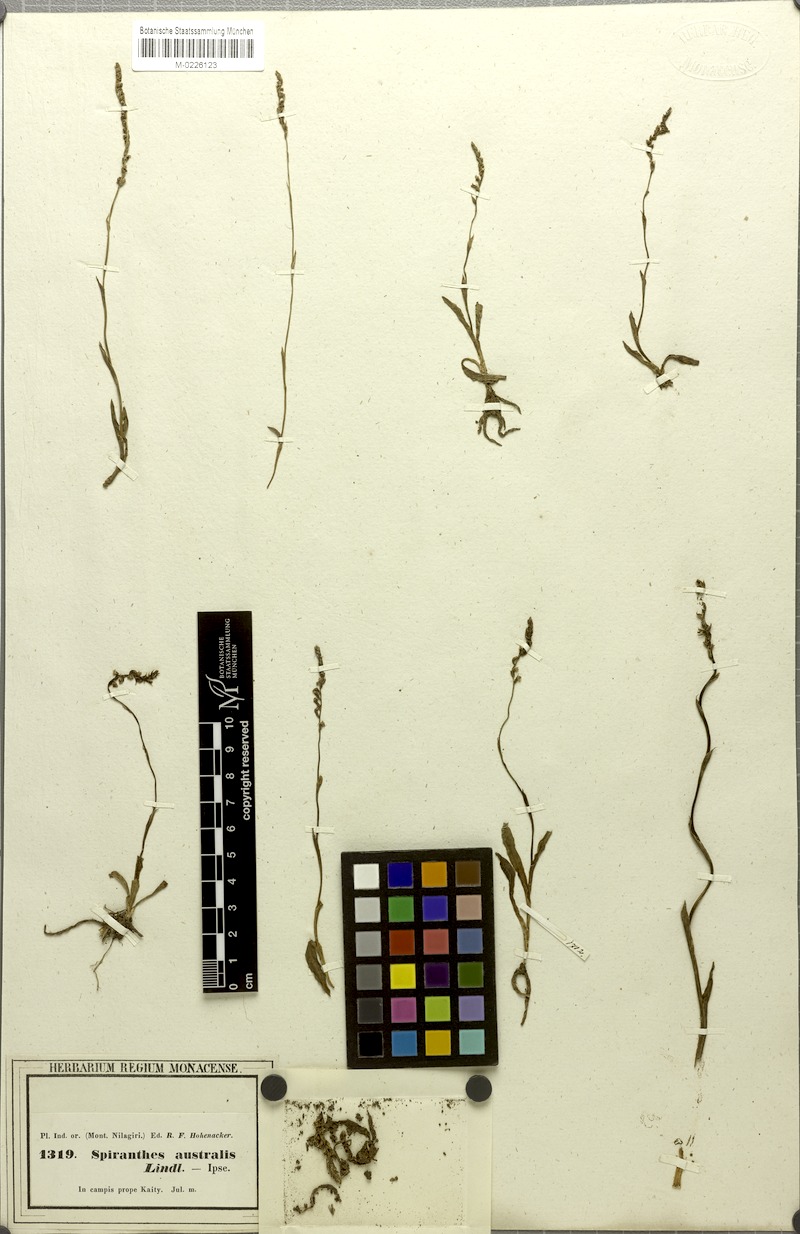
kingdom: Plantae
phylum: Tracheophyta
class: Liliopsida
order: Asparagales
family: Orchidaceae
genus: Spiranthes
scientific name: Spiranthes sinensis
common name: Chinese spiranthes
